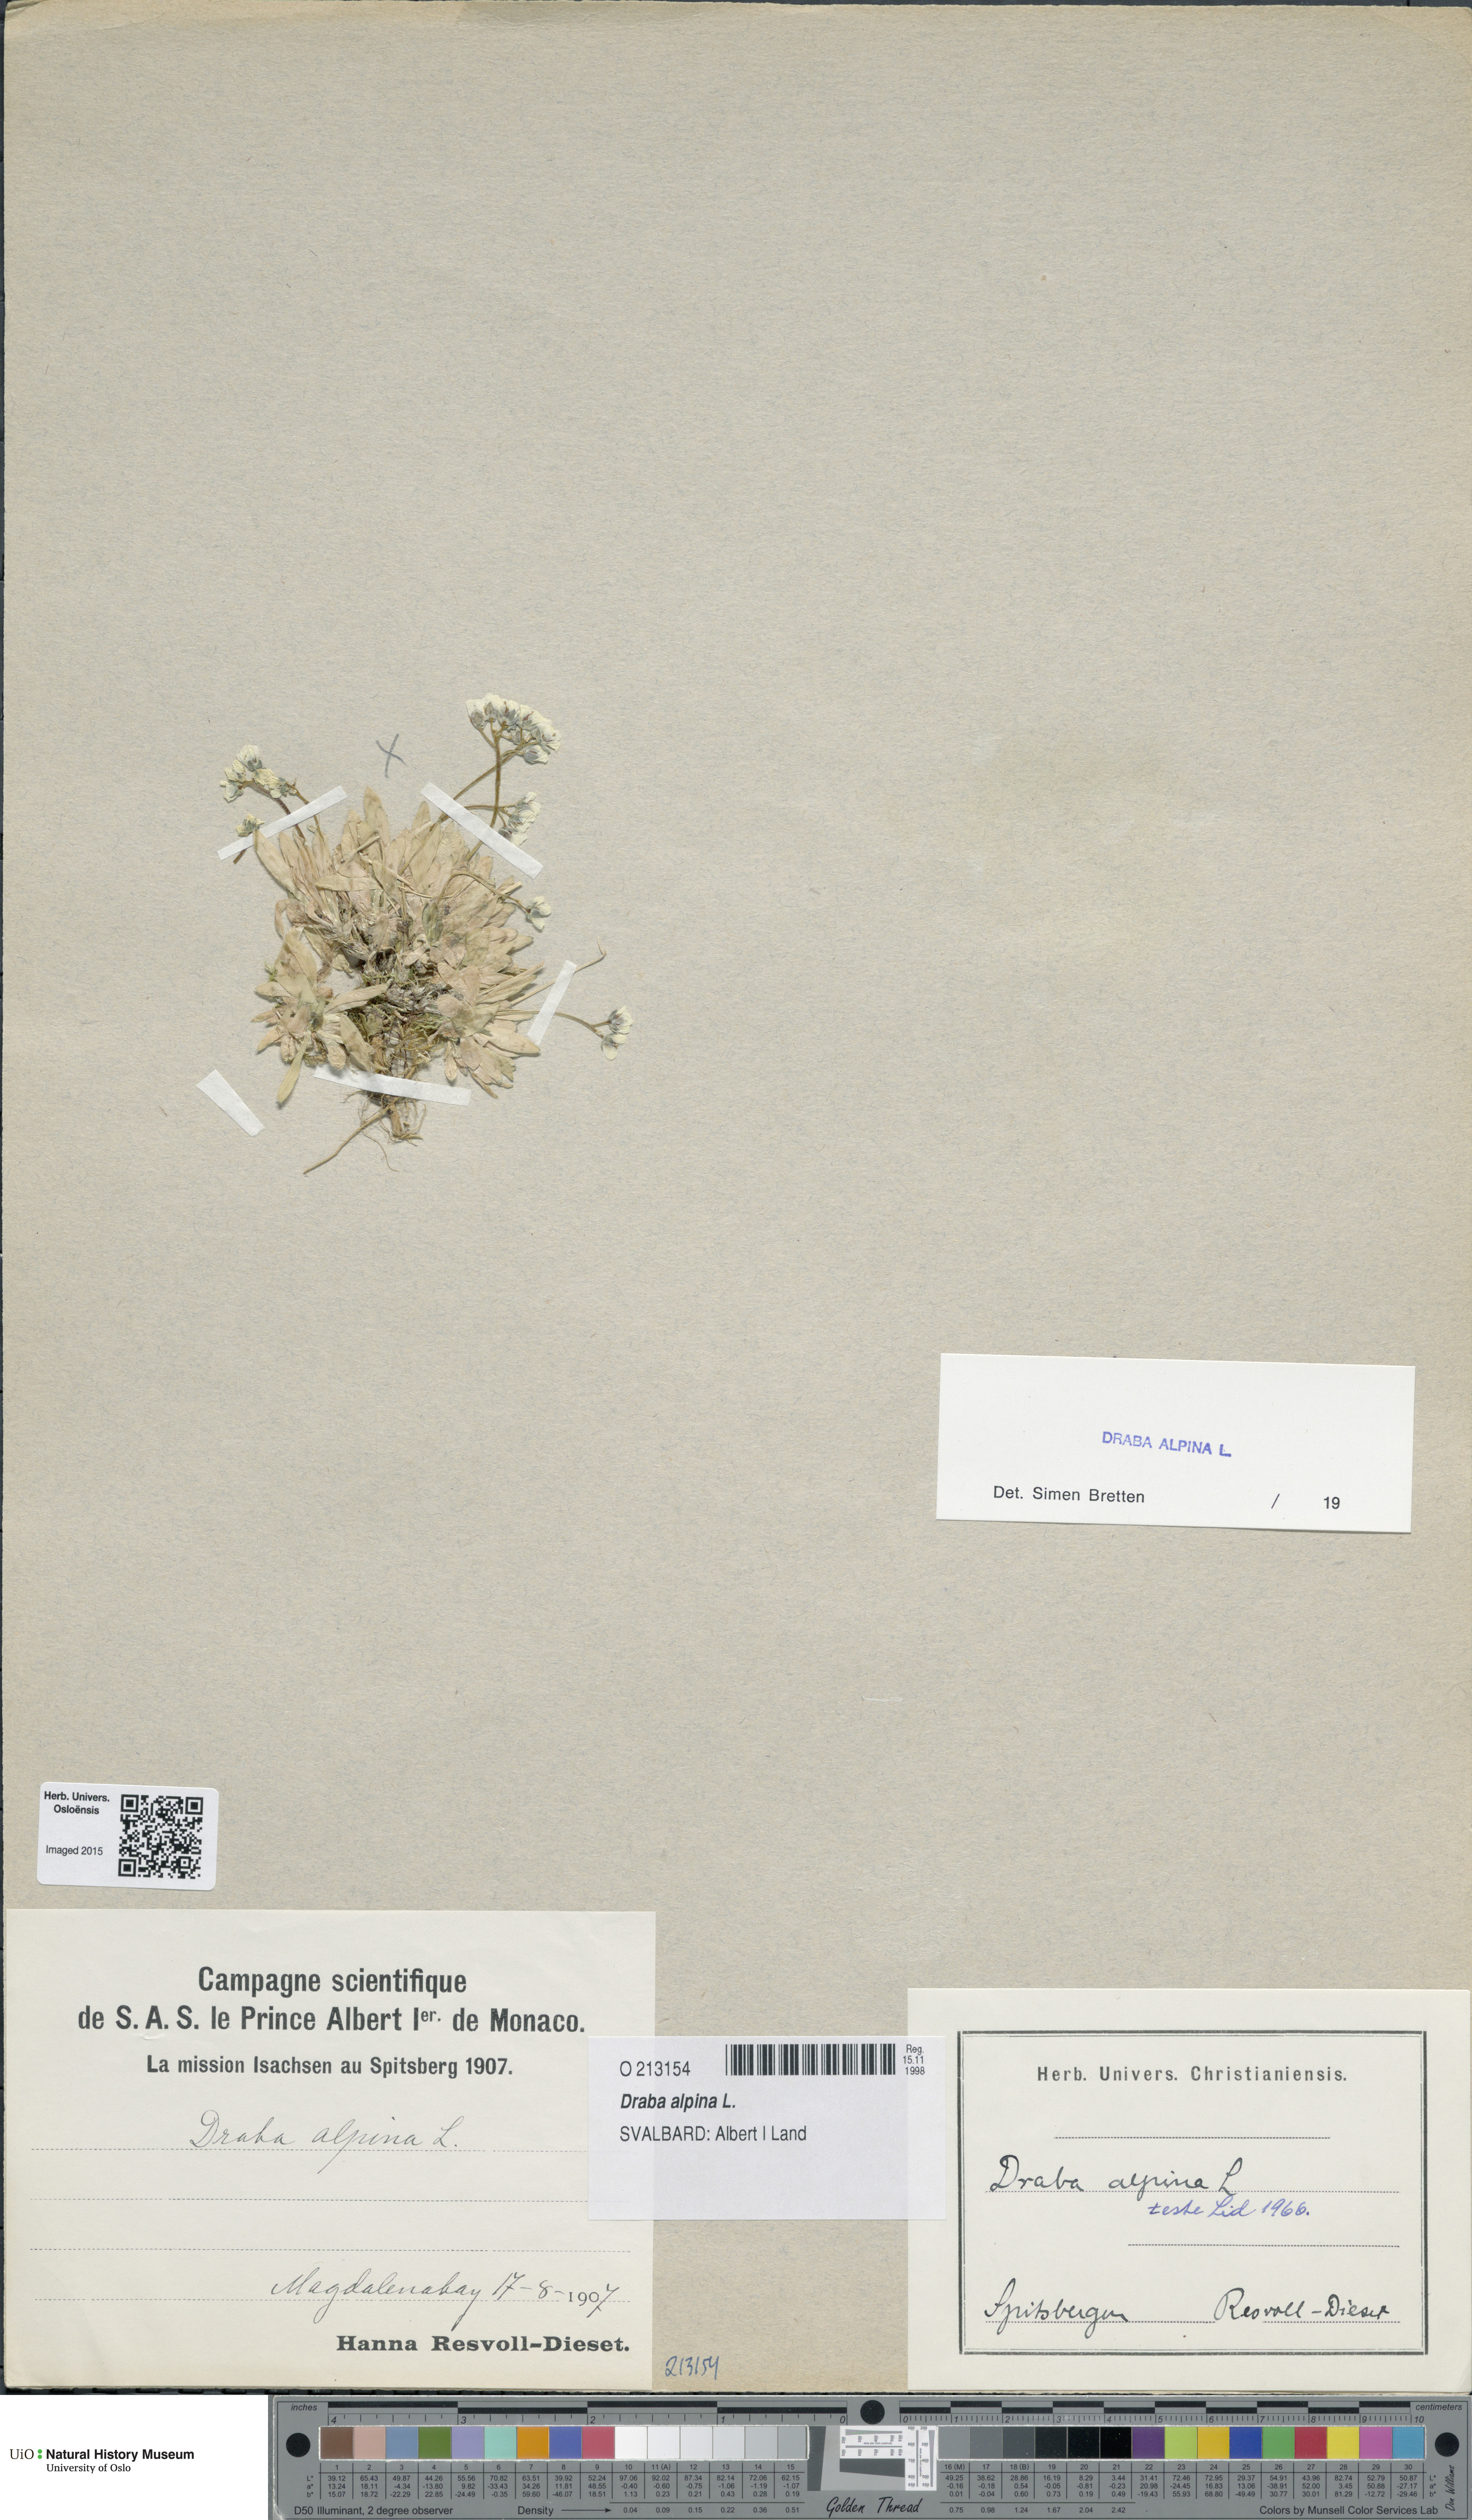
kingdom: Plantae
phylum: Tracheophyta
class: Magnoliopsida
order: Brassicales
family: Brassicaceae
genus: Draba
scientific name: Draba alpina
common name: Alpine draba
